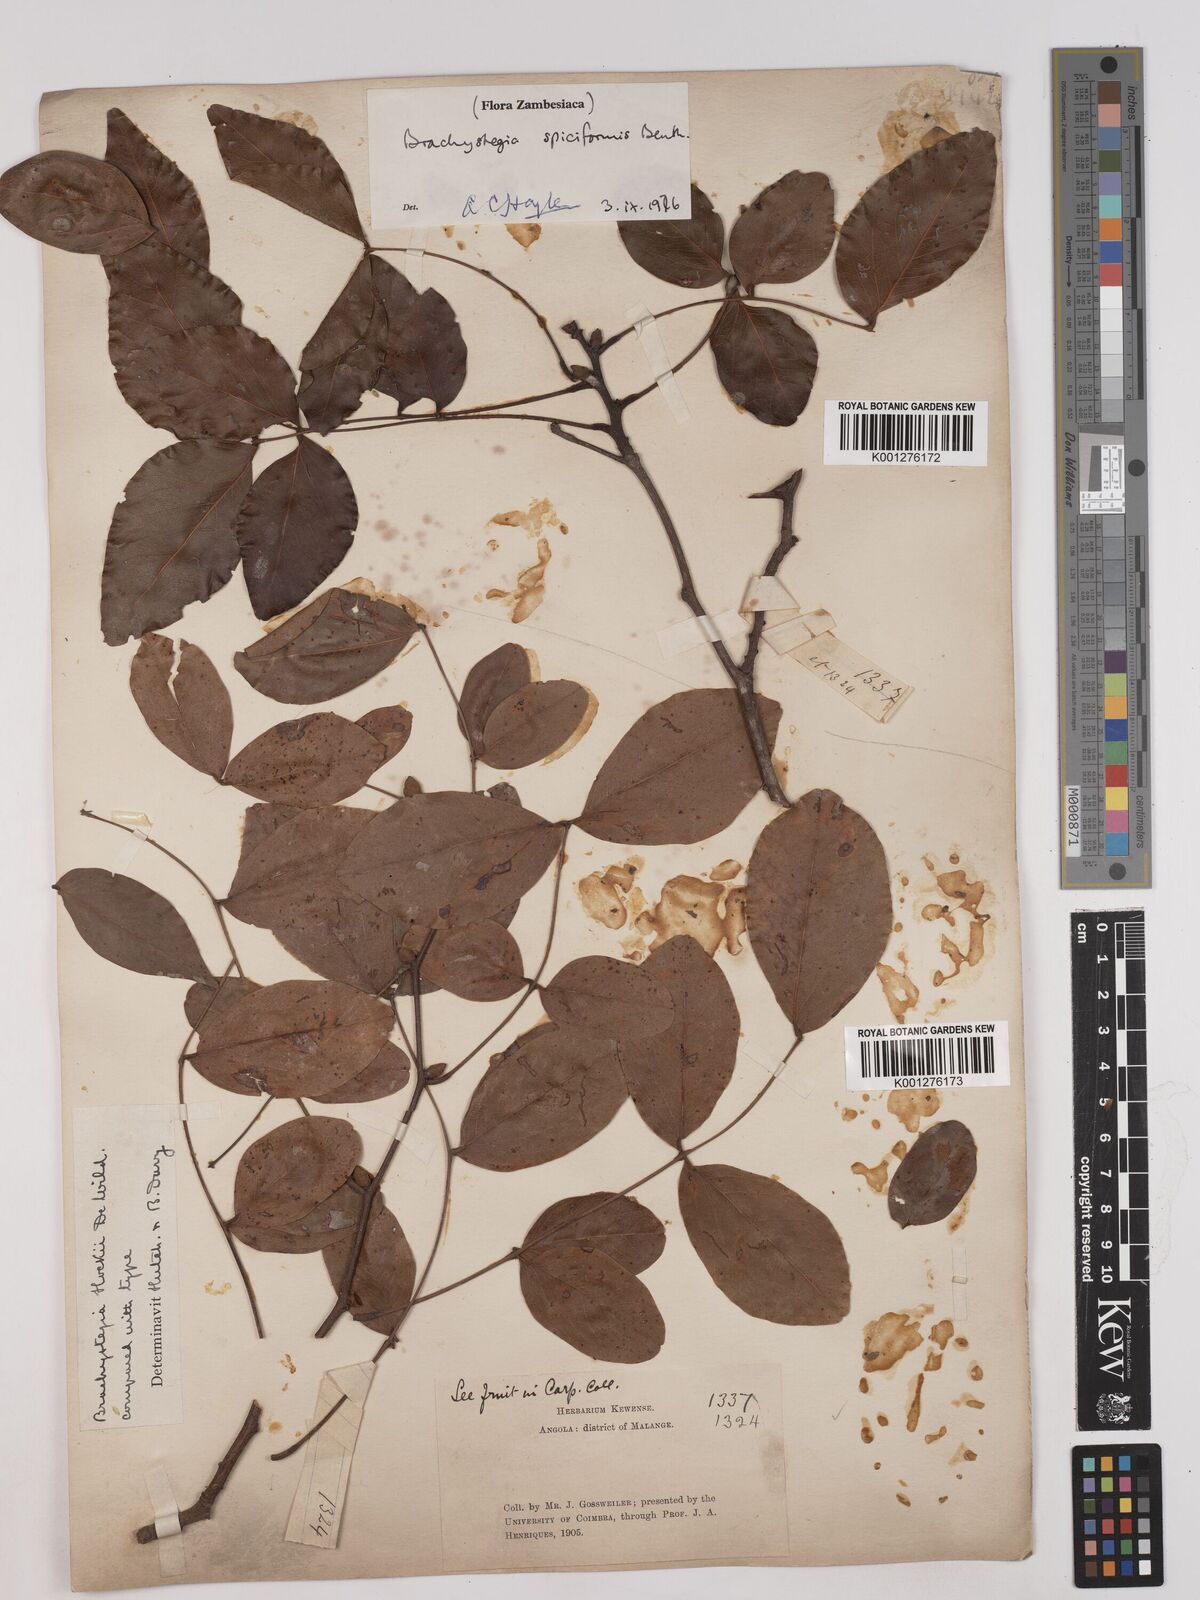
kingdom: Plantae
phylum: Tracheophyta
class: Magnoliopsida
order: Fabales
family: Fabaceae
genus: Brachystegia
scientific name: Brachystegia
